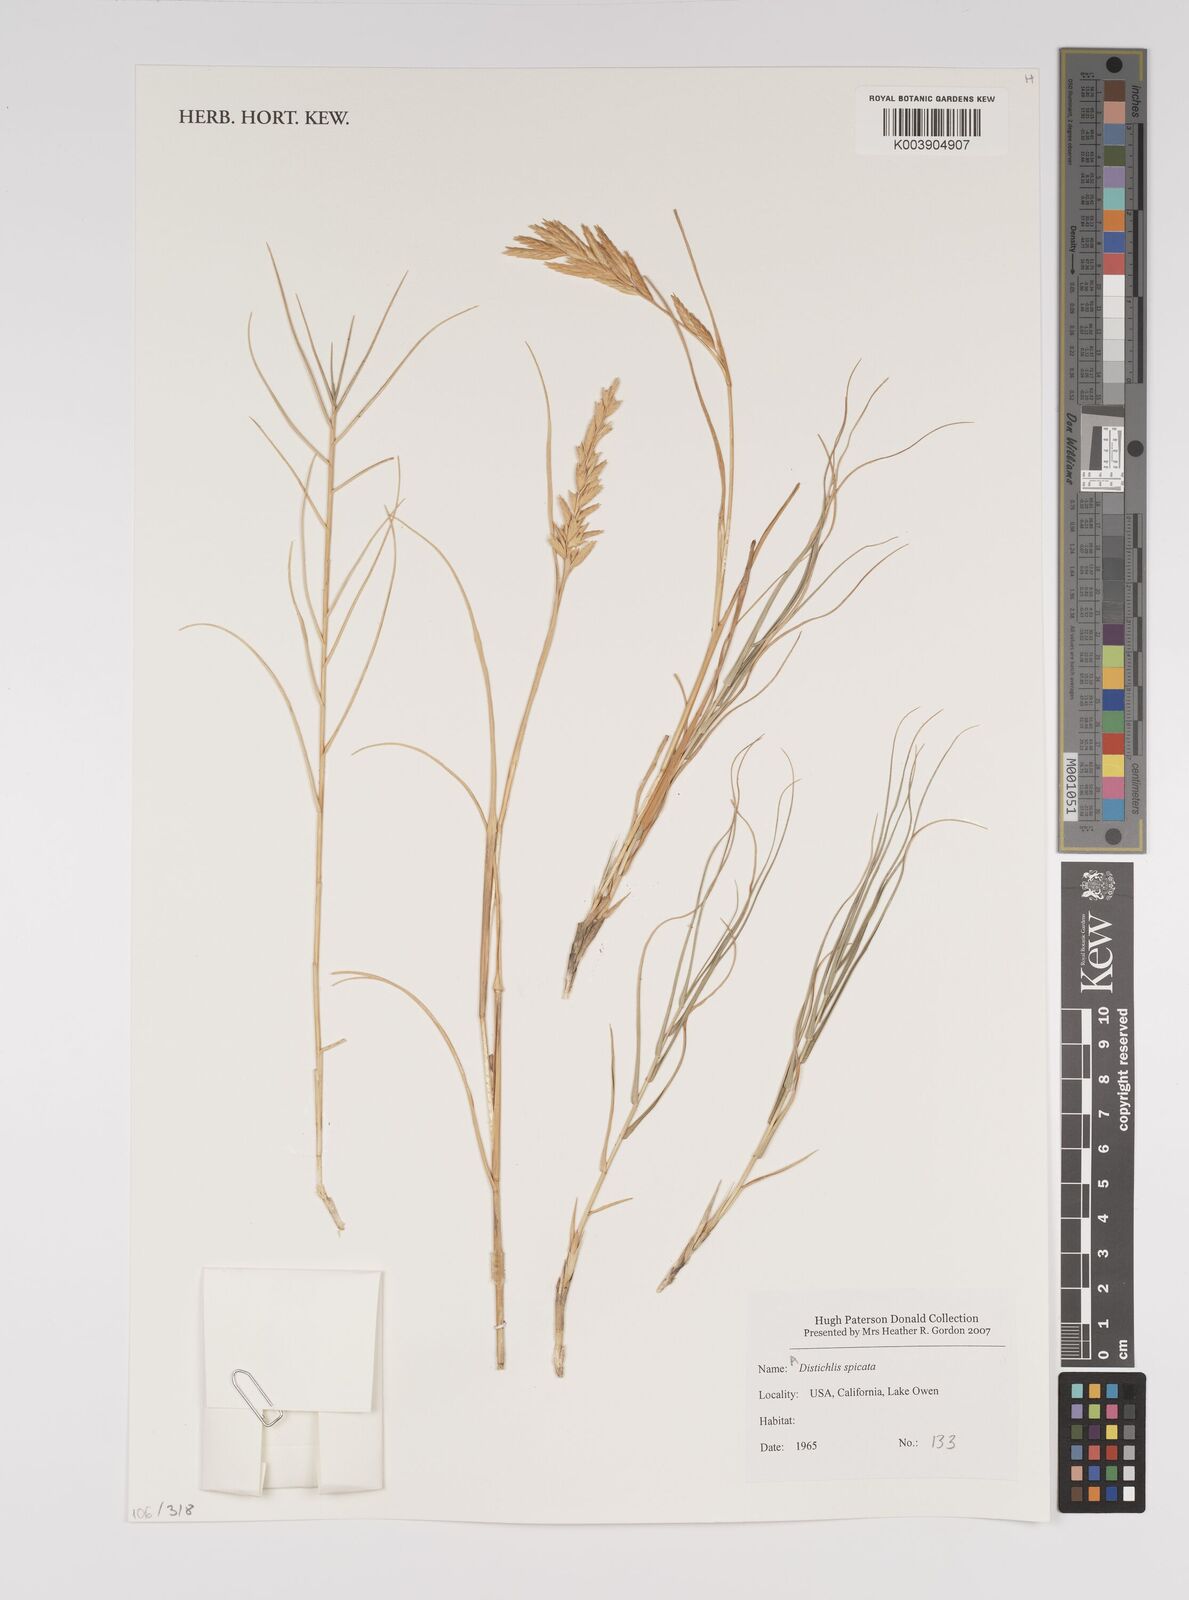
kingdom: Plantae
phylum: Tracheophyta
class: Liliopsida
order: Poales
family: Poaceae
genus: Distichlis
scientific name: Distichlis spicata
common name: Saltgrass
